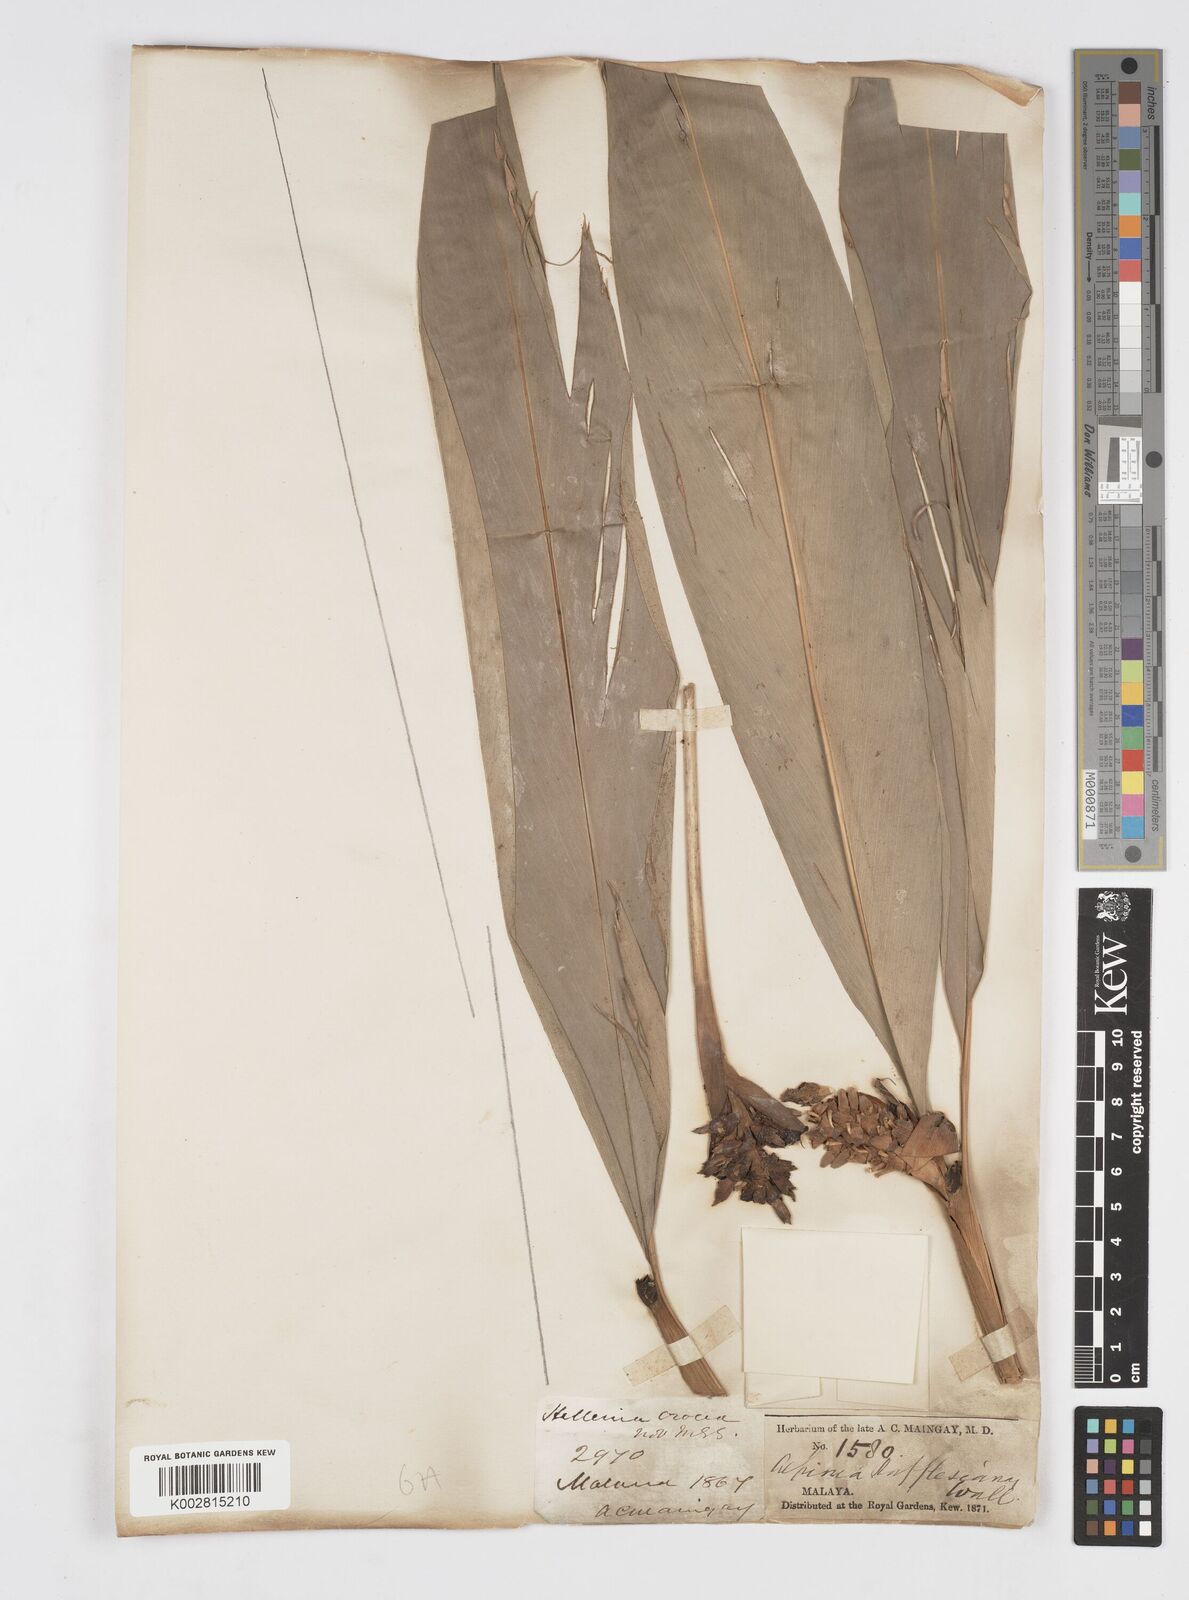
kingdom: Plantae
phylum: Tracheophyta
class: Liliopsida
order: Zingiberales
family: Zingiberaceae
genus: Alpinia
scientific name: Alpinia rafflesiana
